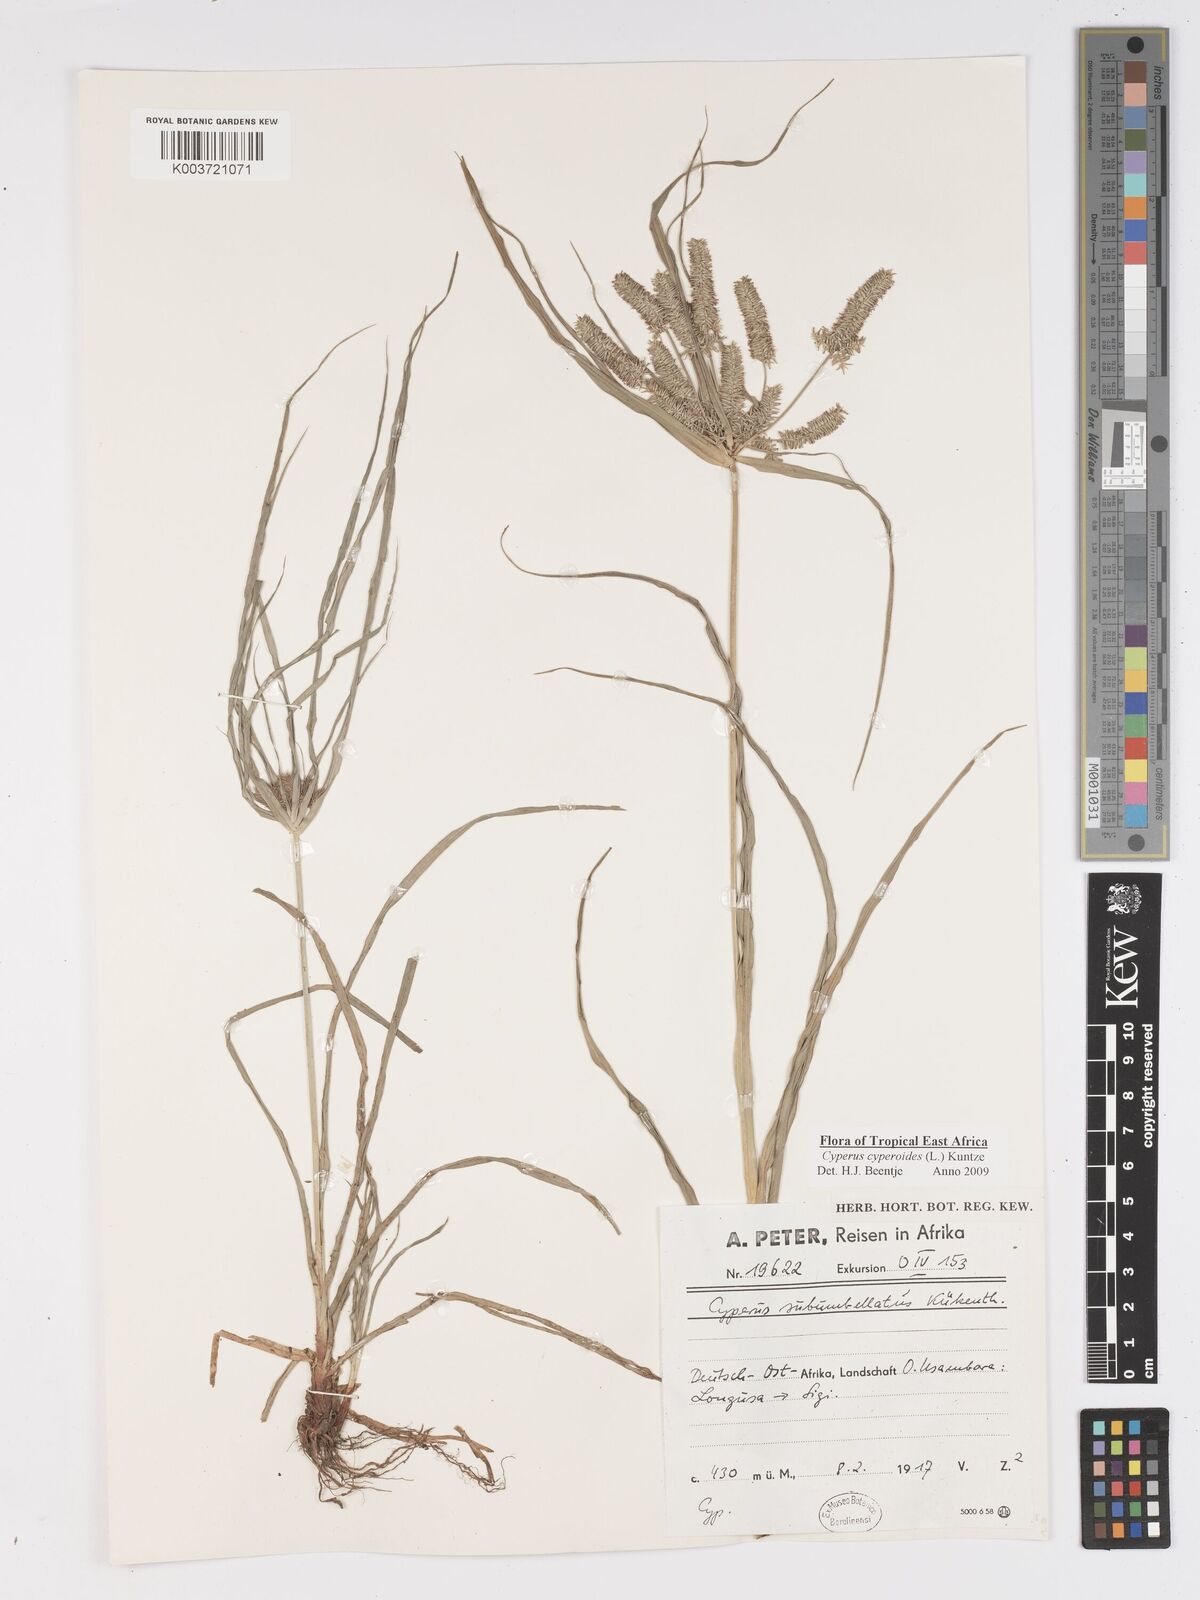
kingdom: Plantae
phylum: Tracheophyta
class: Liliopsida
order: Poales
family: Cyperaceae
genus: Cyperus
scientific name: Cyperus cyperoides
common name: Pacific island flat sedge
